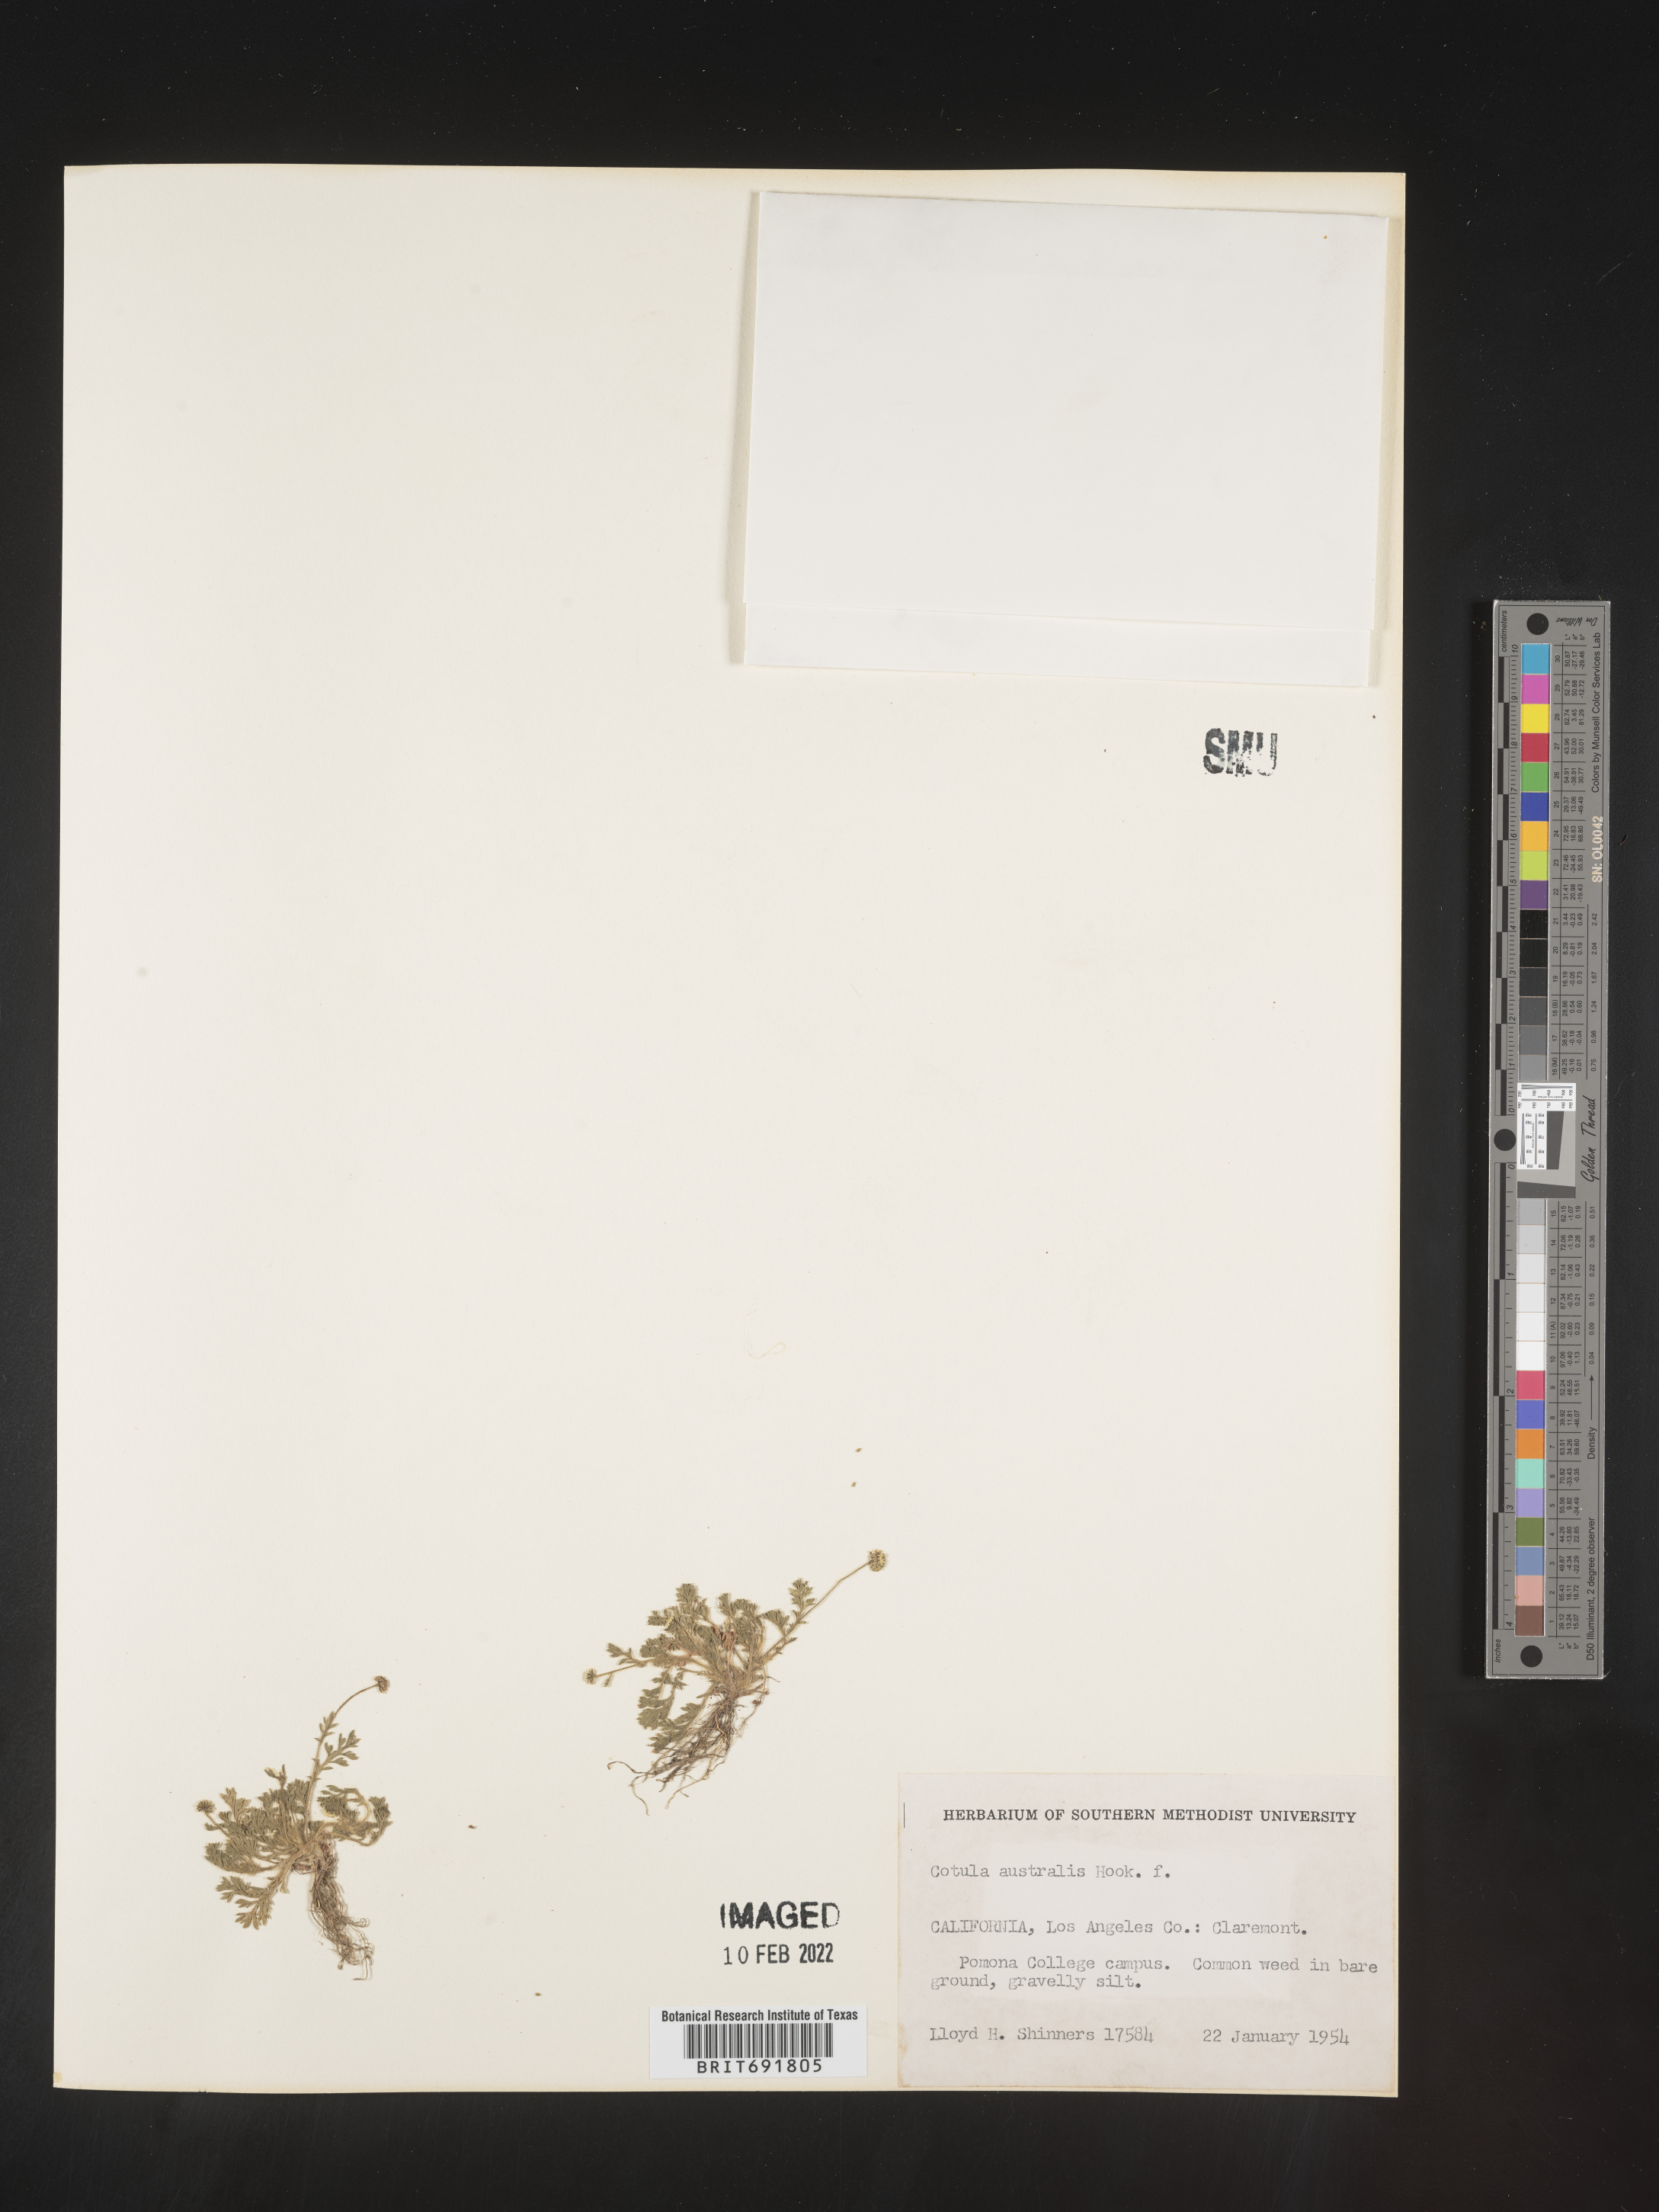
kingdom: Plantae
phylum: Tracheophyta
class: Magnoliopsida
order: Asterales
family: Asteraceae
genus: Cotula
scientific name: Cotula
